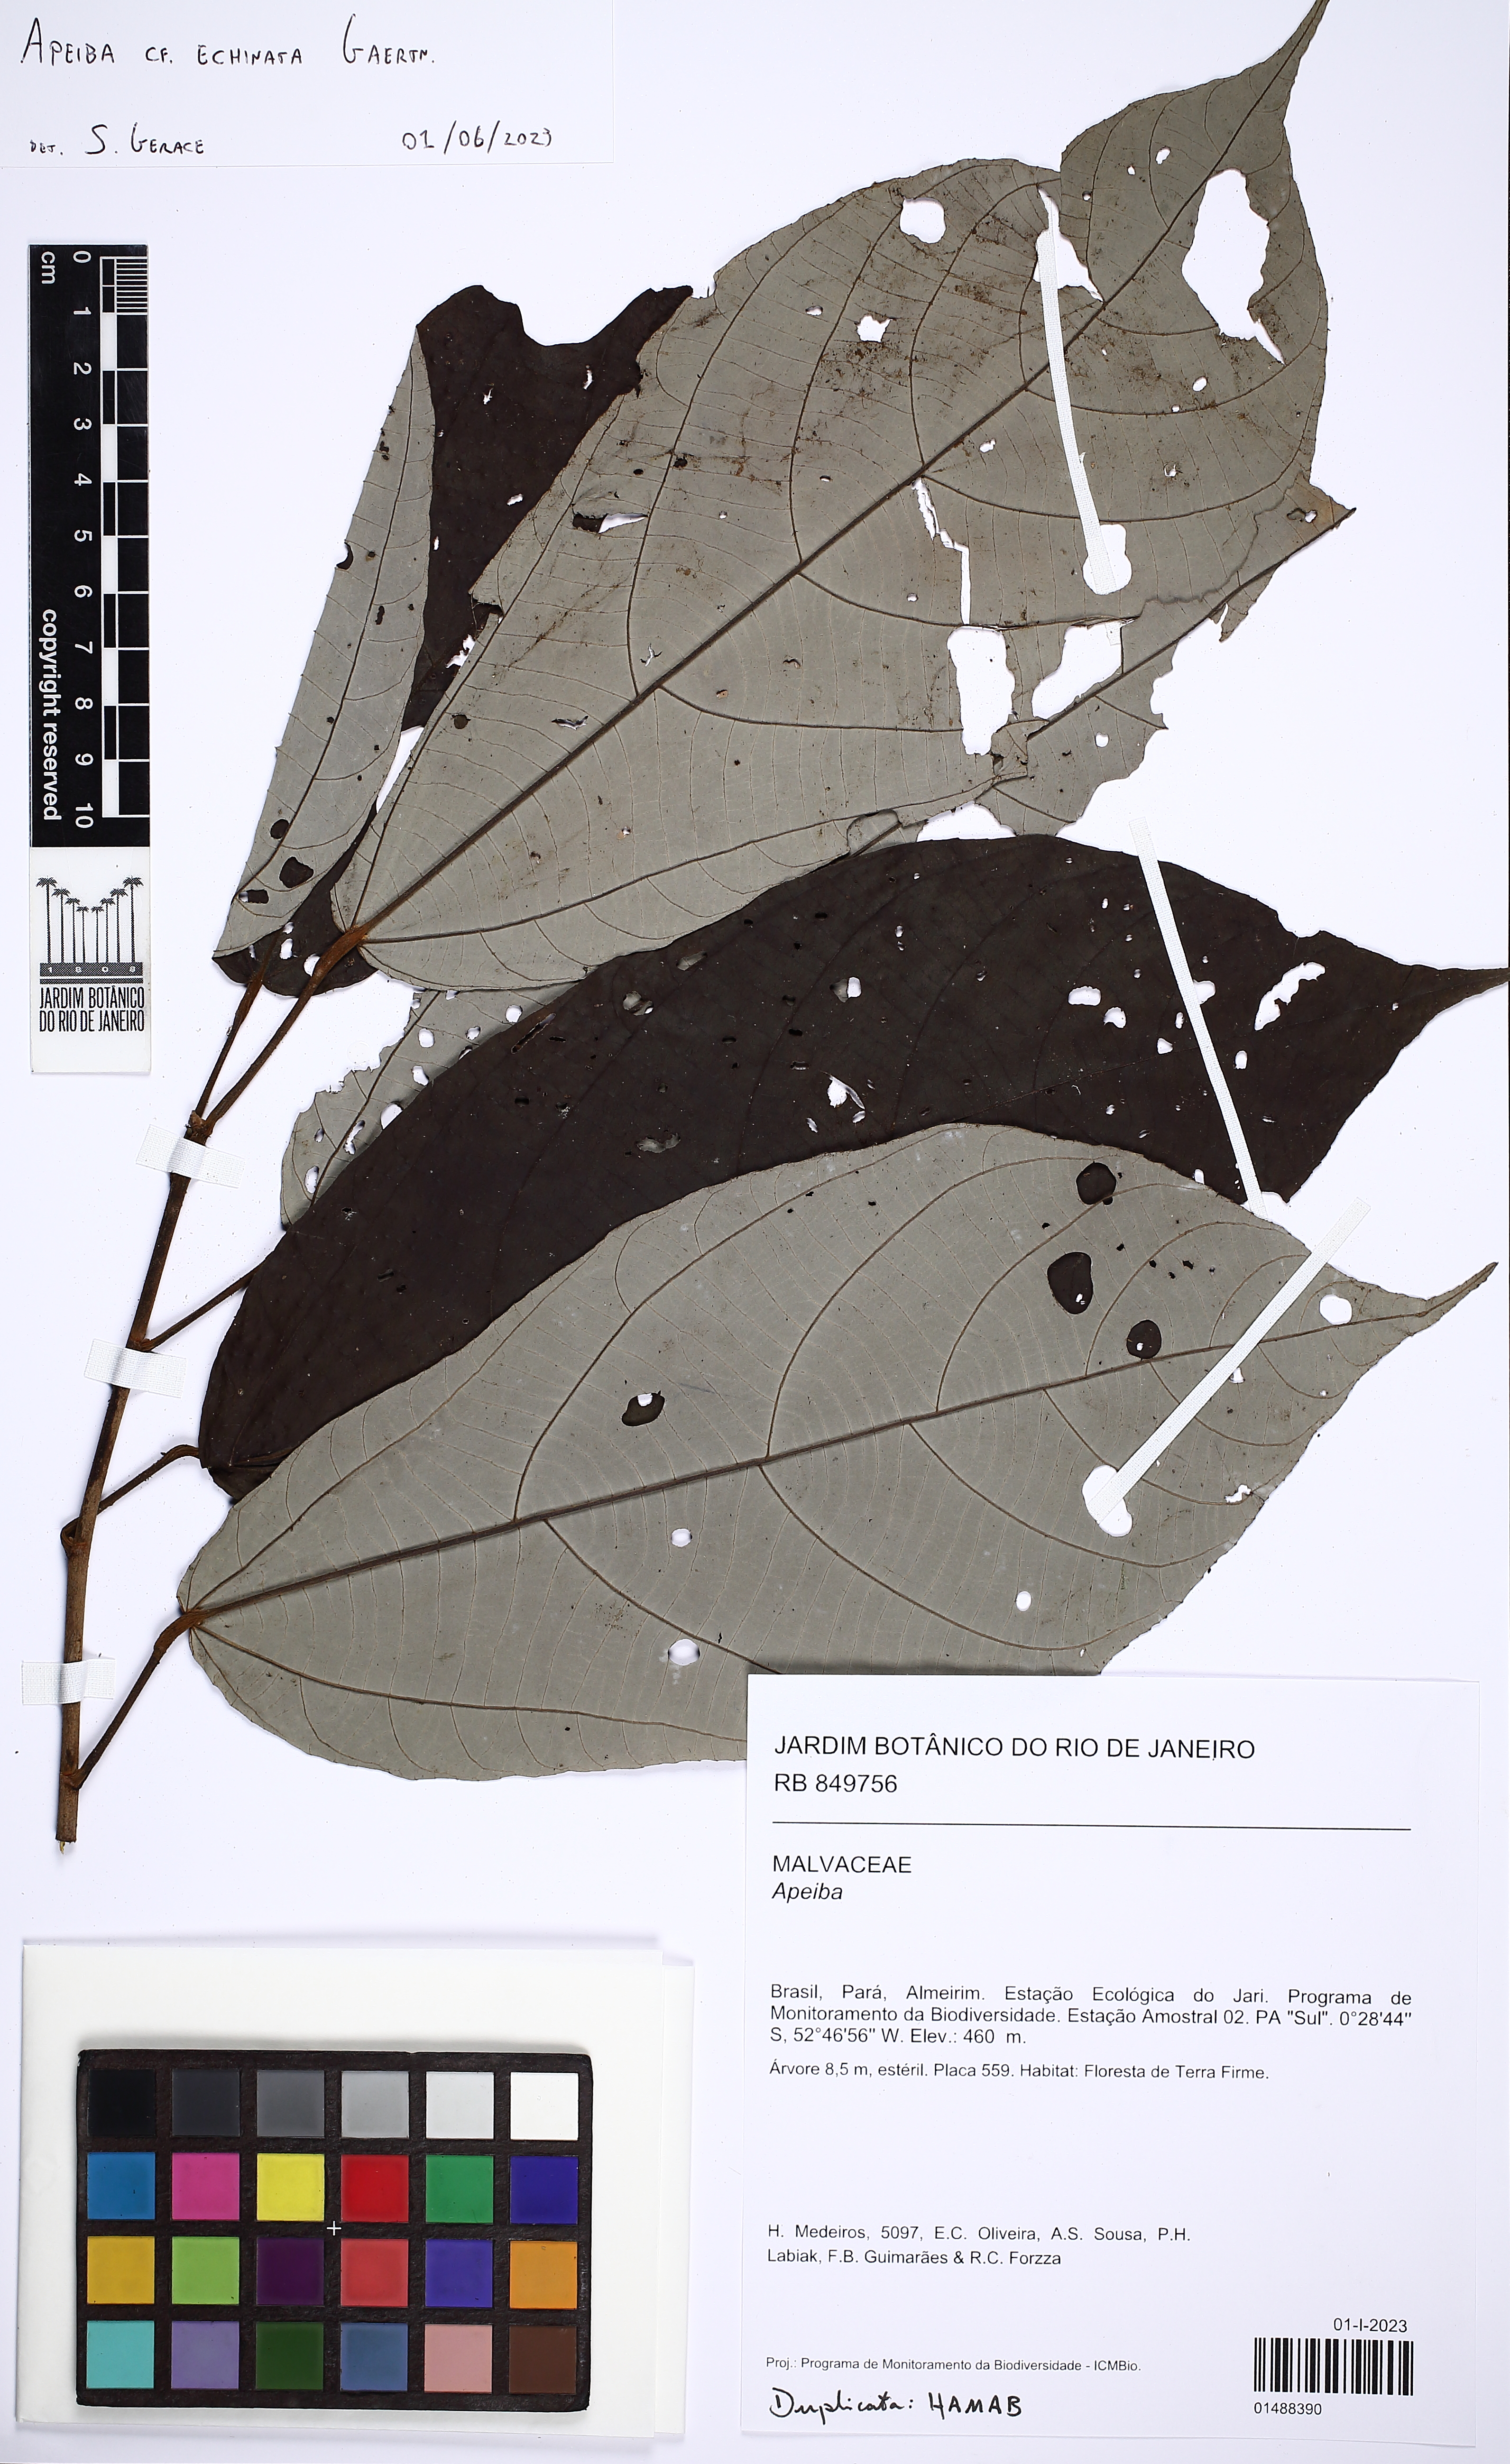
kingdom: Plantae
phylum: Tracheophyta
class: Magnoliopsida
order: Malvales
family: Malvaceae
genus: Apeiba
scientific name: Apeiba petoumo
